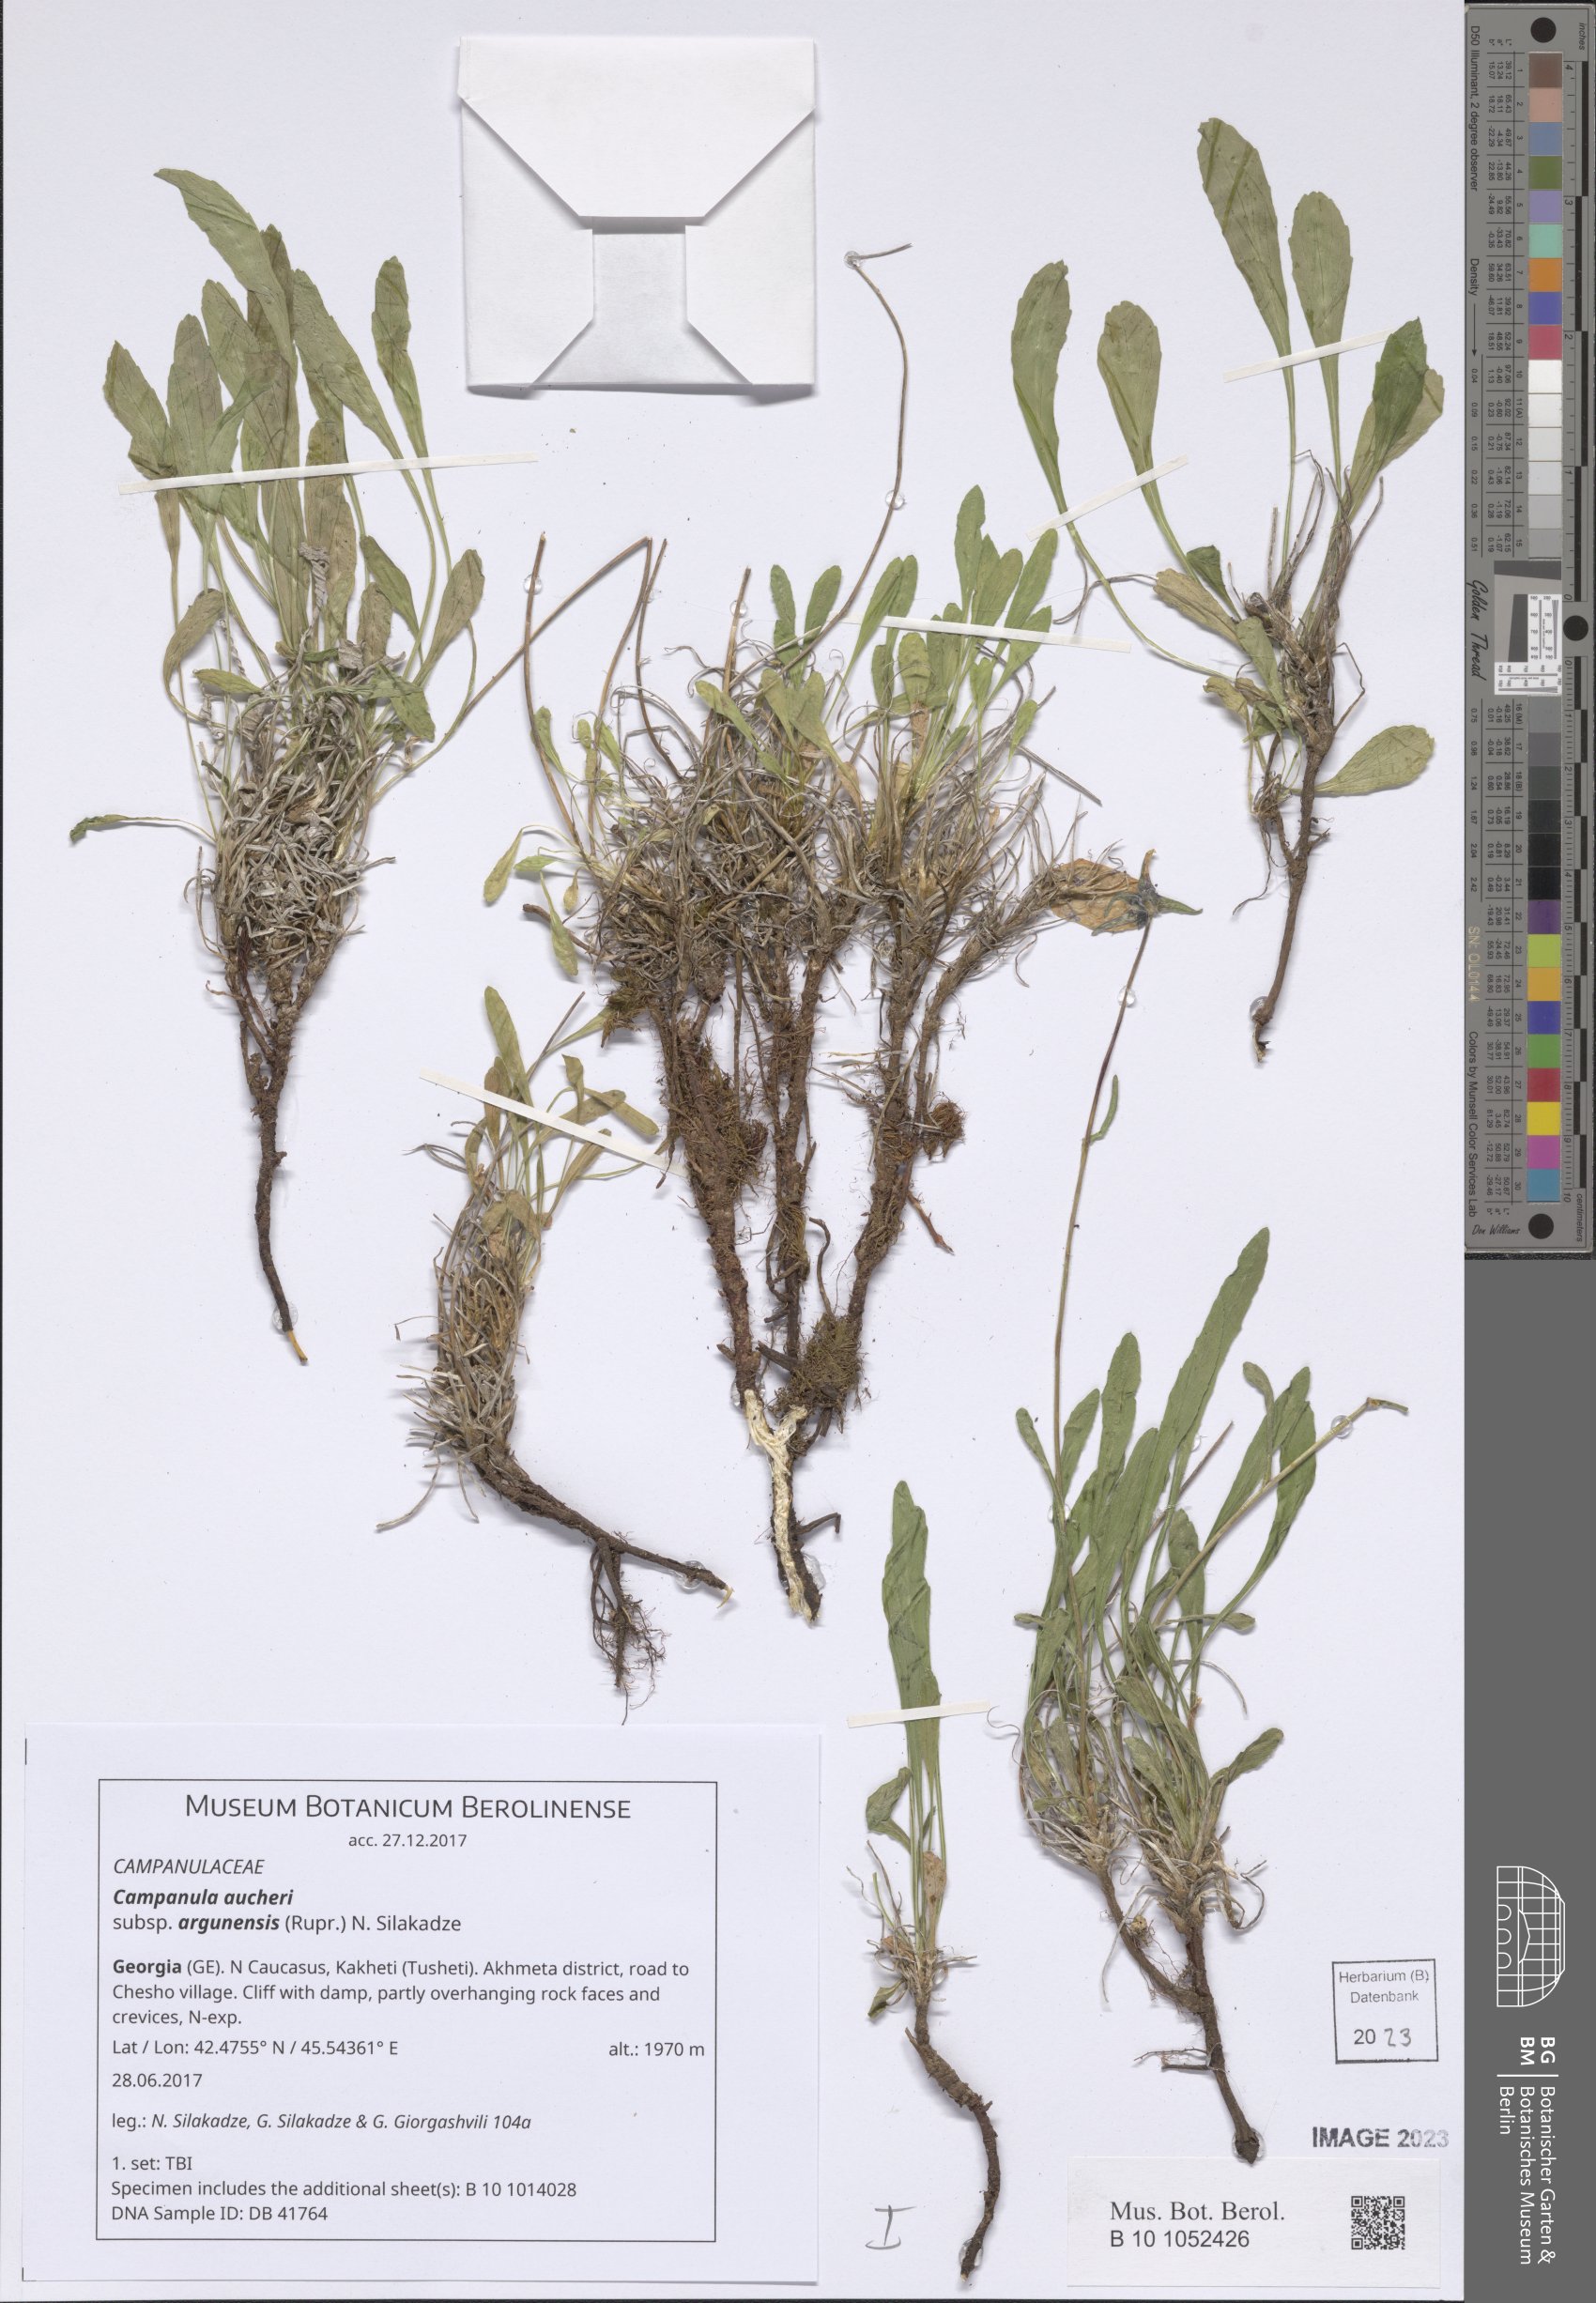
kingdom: Plantae
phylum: Tracheophyta
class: Magnoliopsida
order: Asterales
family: Campanulaceae
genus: Campanula
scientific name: Campanula saxifraga
